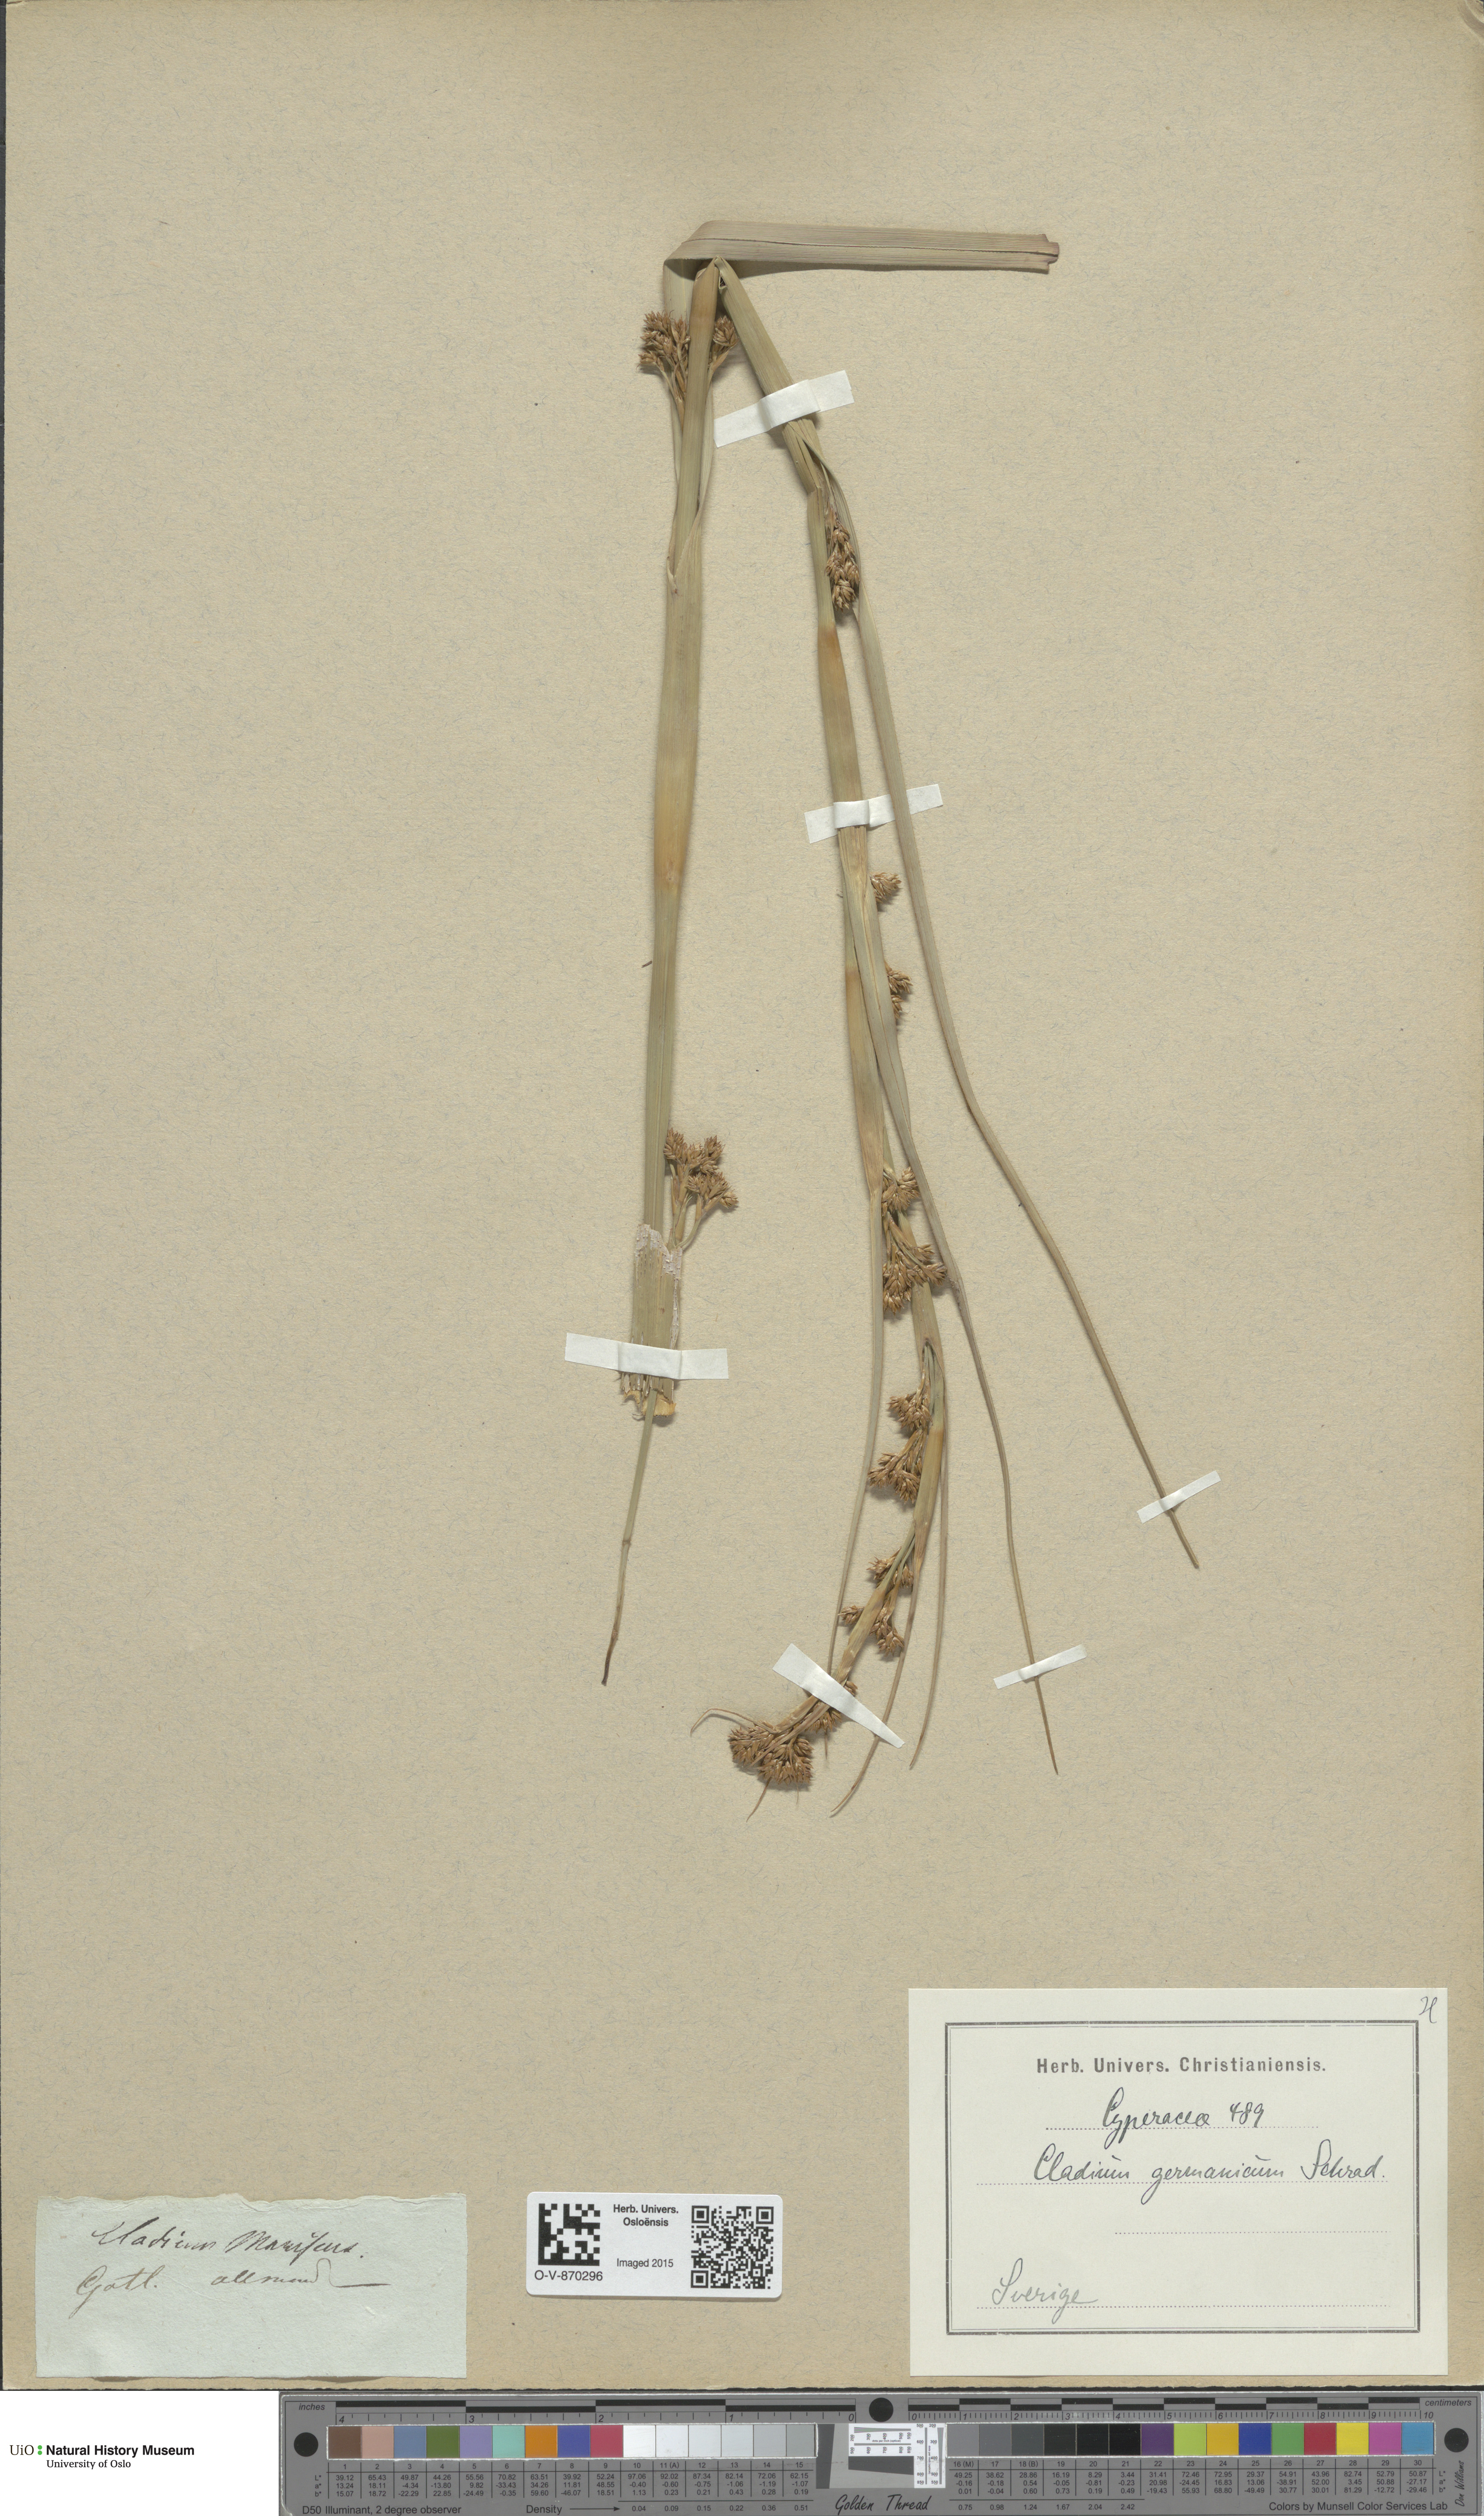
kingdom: Plantae
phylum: Tracheophyta
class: Liliopsida
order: Poales
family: Cyperaceae
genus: Cladium
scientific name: Cladium mariscus
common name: Great fen-sedge
